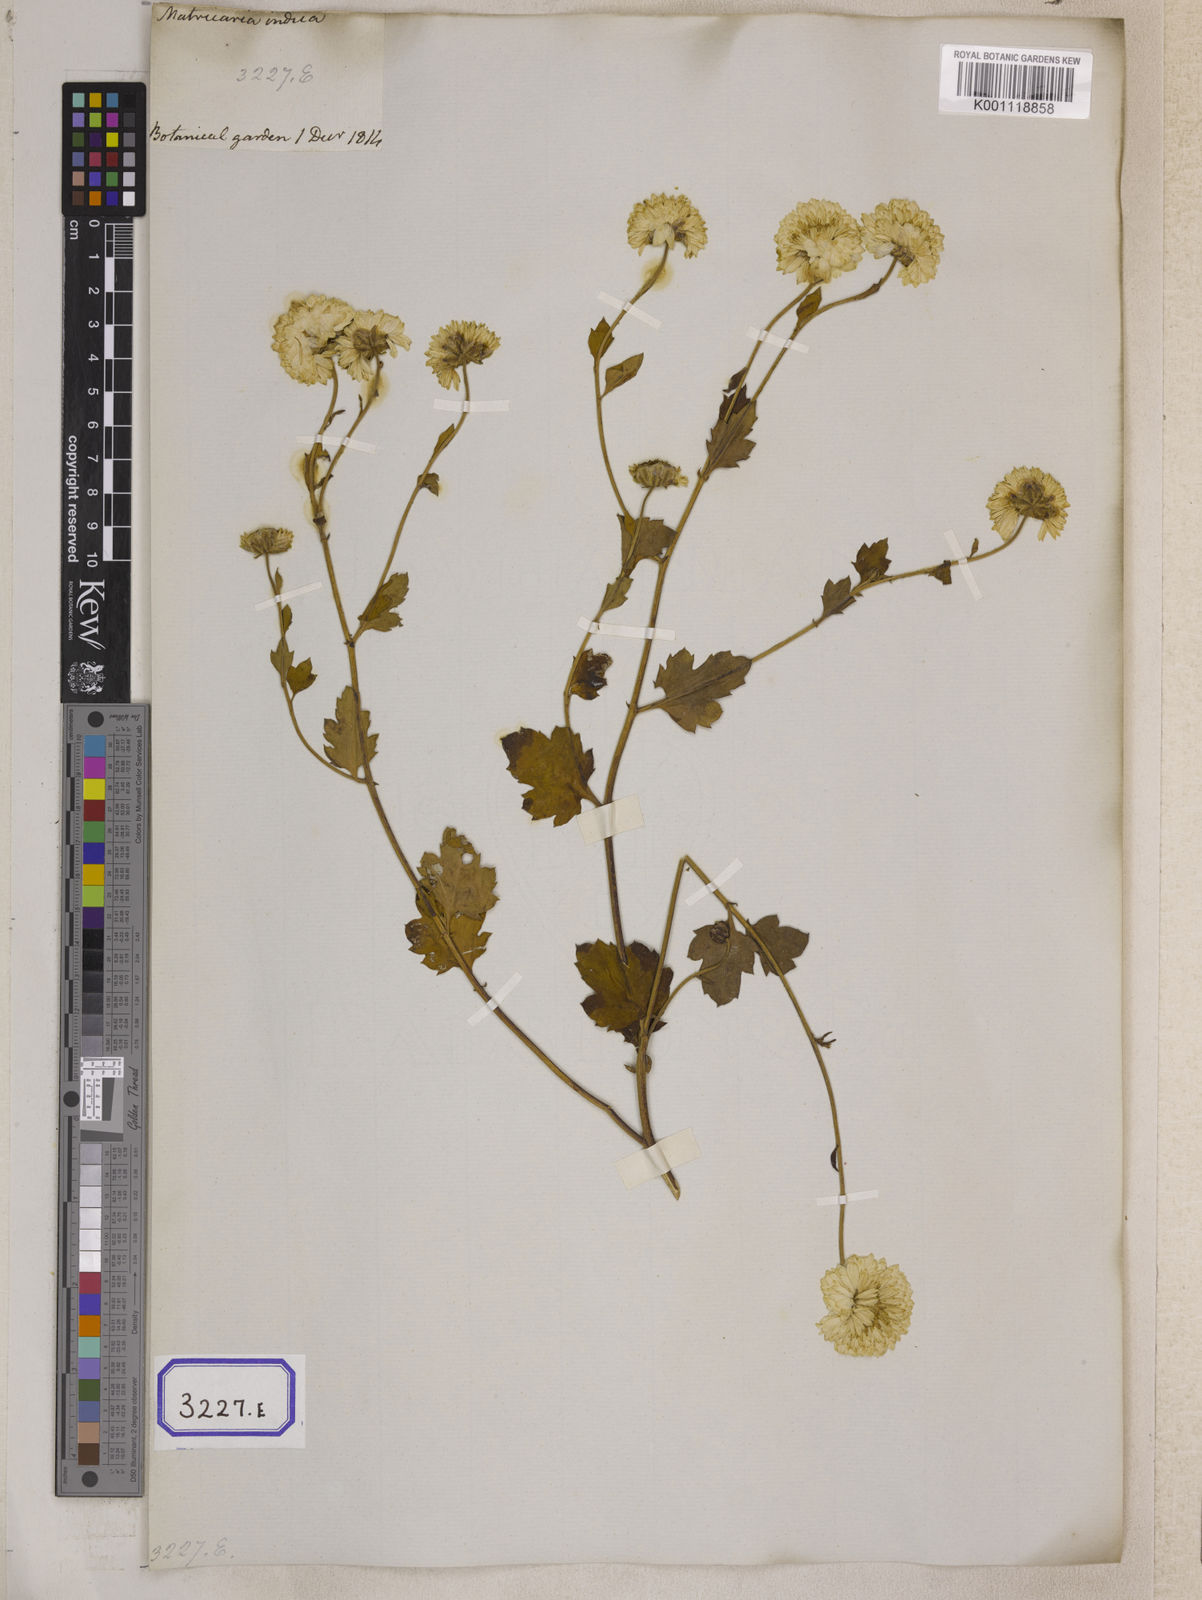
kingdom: Plantae
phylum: Tracheophyta
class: Magnoliopsida
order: Asterales
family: Asteraceae
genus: Chrysanthemum
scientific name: Chrysanthemum indicum
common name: Indian chrysanthemum
